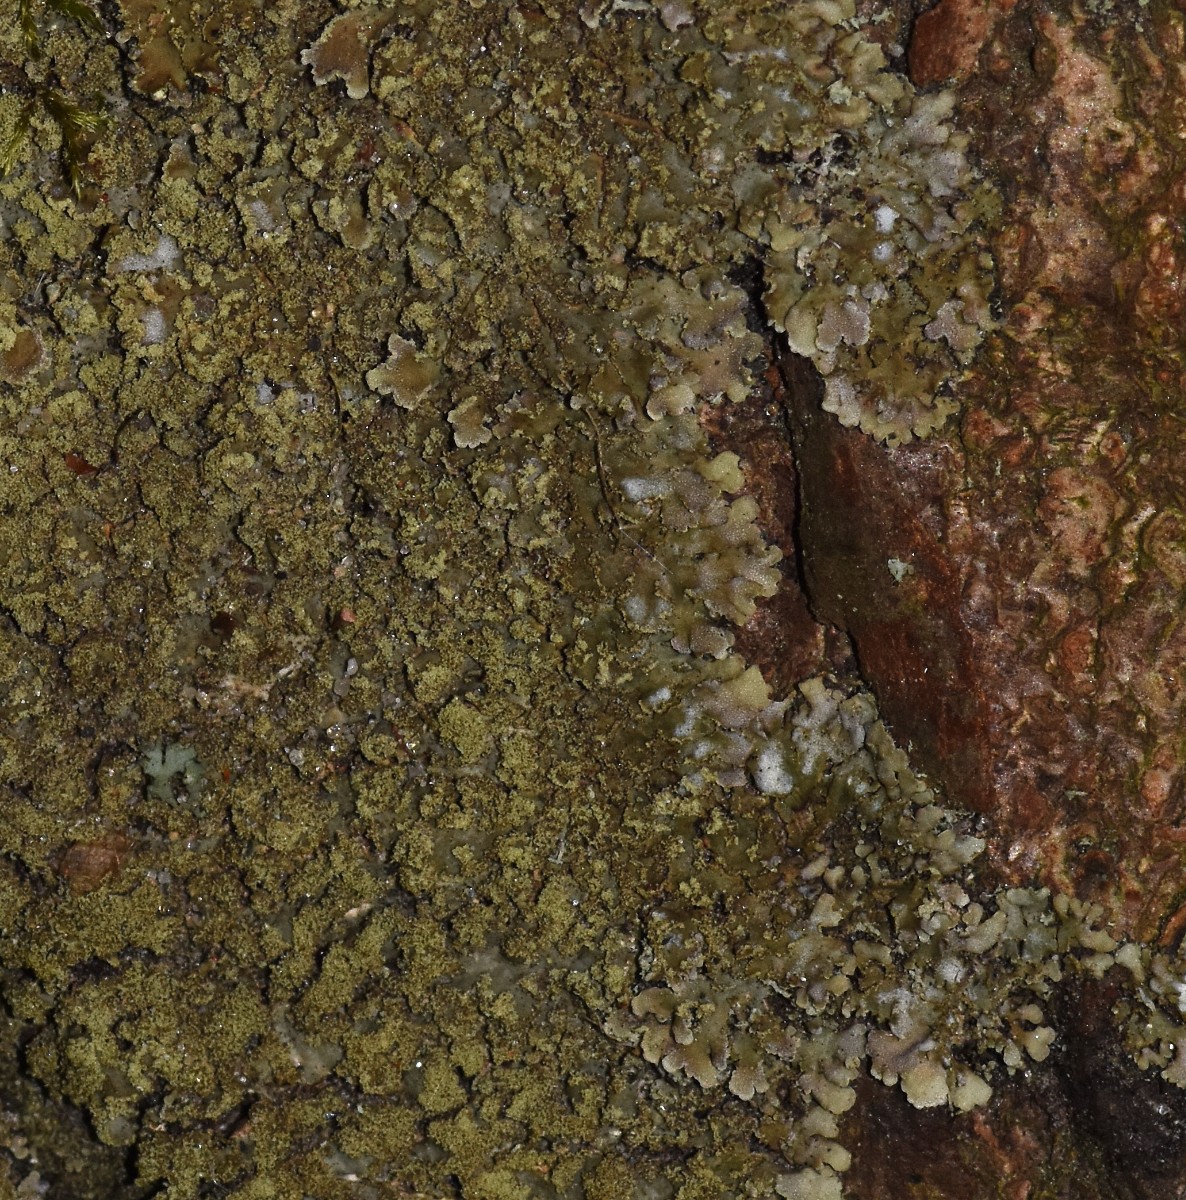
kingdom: Fungi
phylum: Ascomycota
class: Lecanoromycetes
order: Caliciales
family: Physciaceae
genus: Physconia
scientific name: Physconia perisidiosa
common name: liden dugrosetlav
